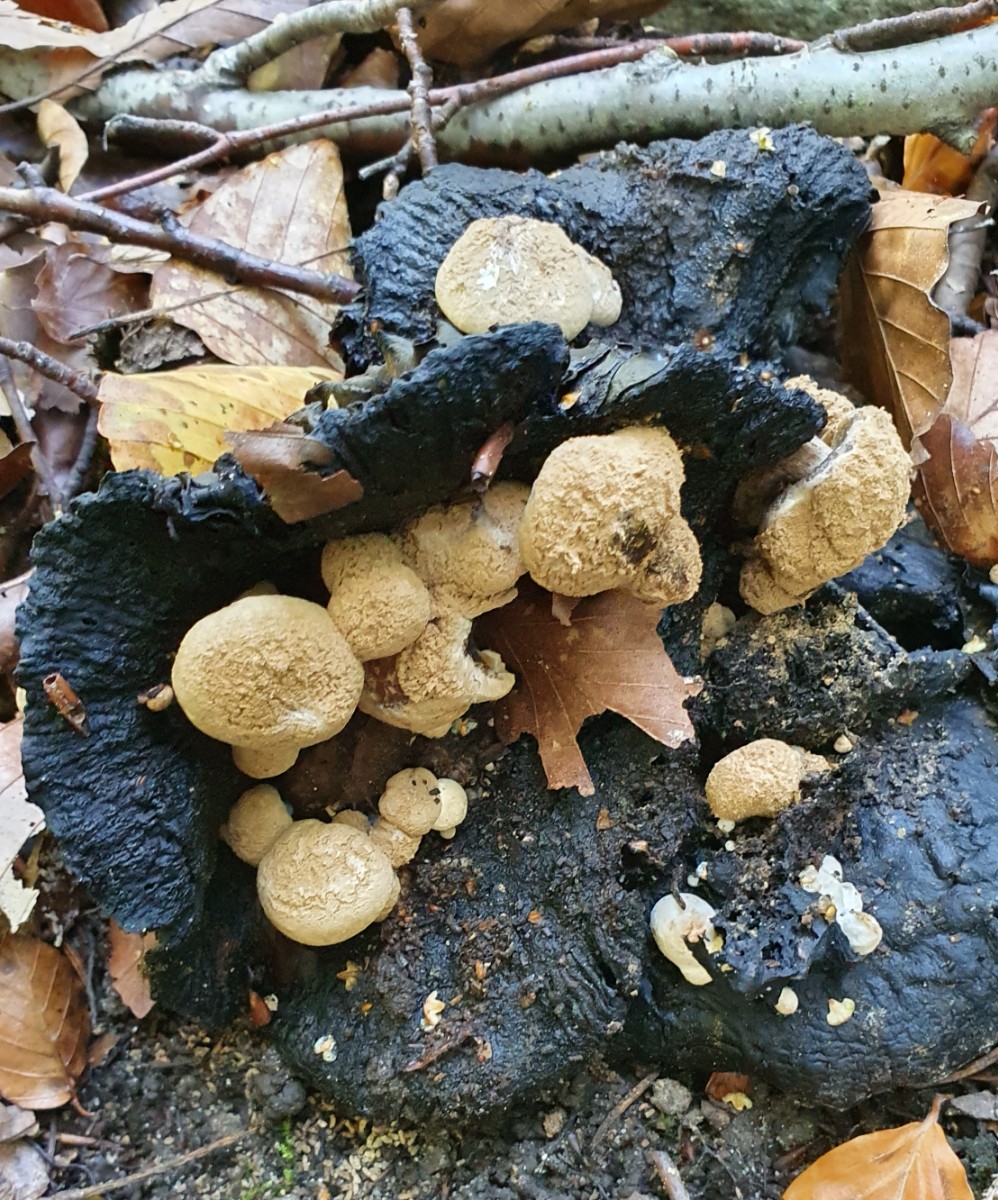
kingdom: Fungi
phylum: Basidiomycota
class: Agaricomycetes
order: Agaricales
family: Lyophyllaceae
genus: Asterophora
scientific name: Asterophora lycoperdoides
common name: brunpudret snyltehat
